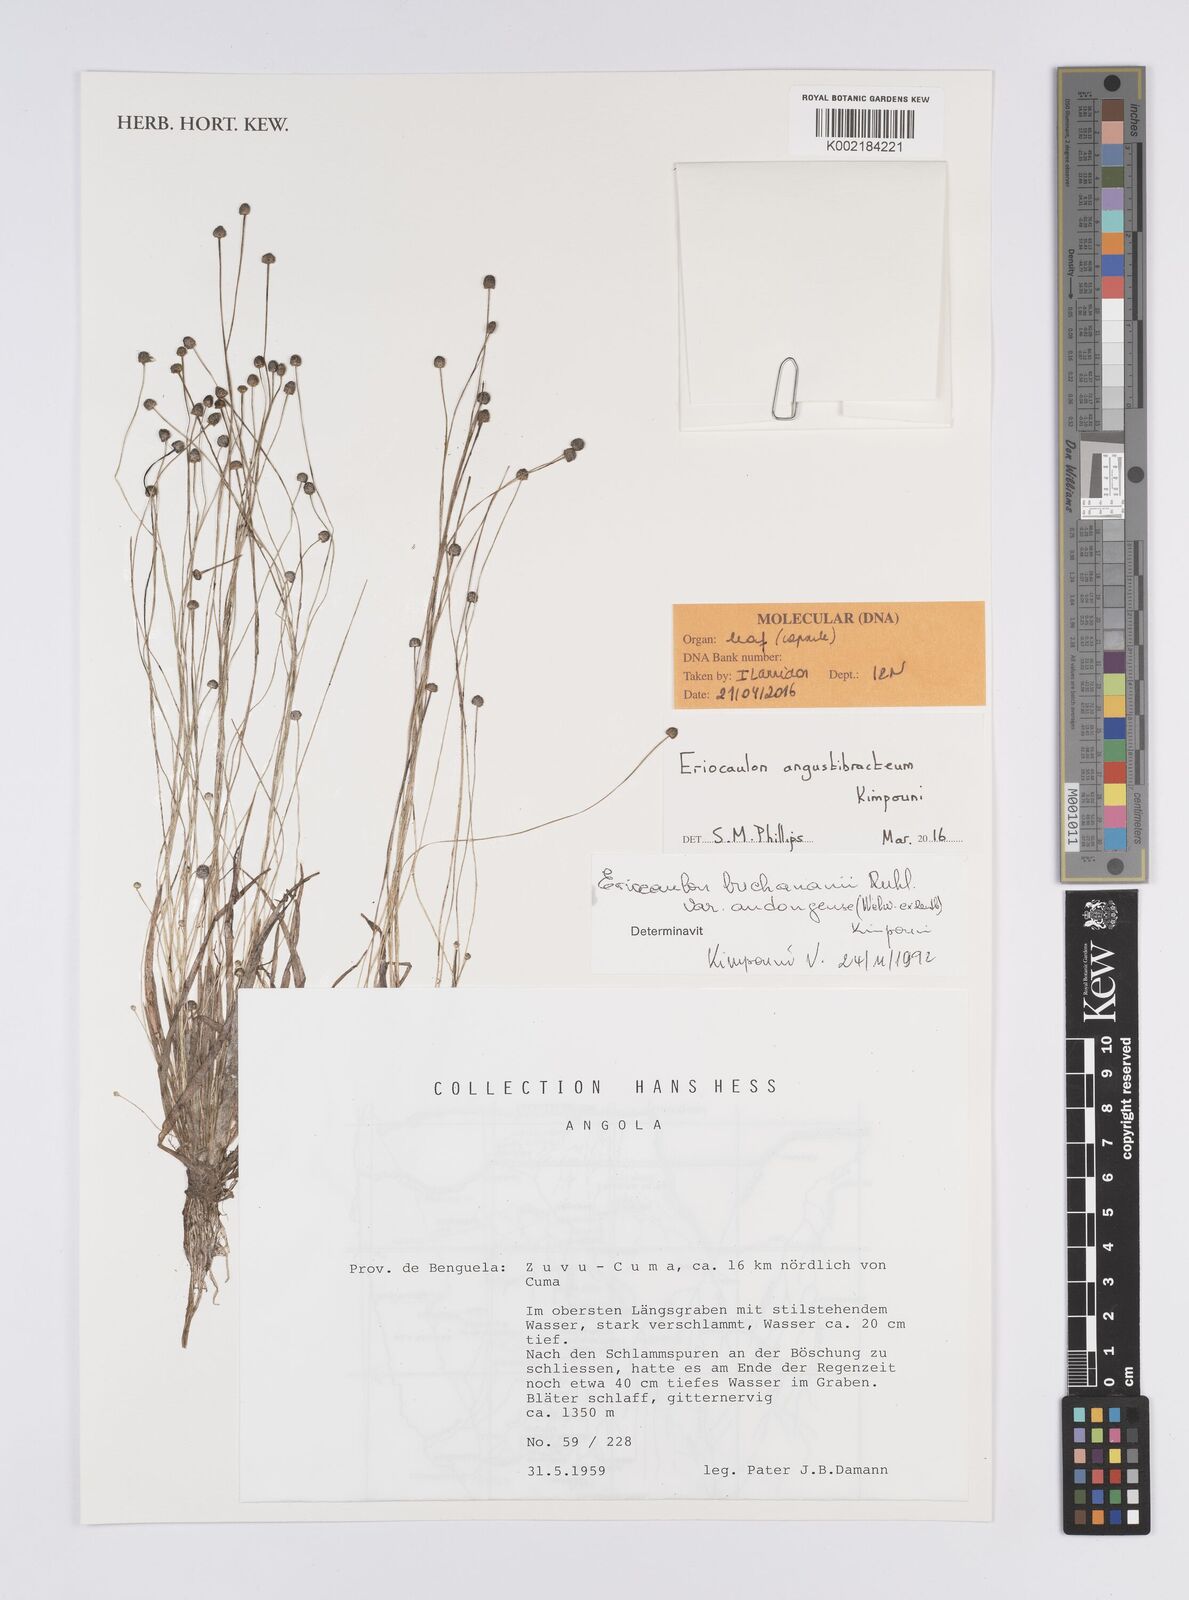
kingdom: Plantae
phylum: Tracheophyta
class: Liliopsida
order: Poales
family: Eriocaulaceae
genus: Eriocaulon
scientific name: Eriocaulon angustibracteum
